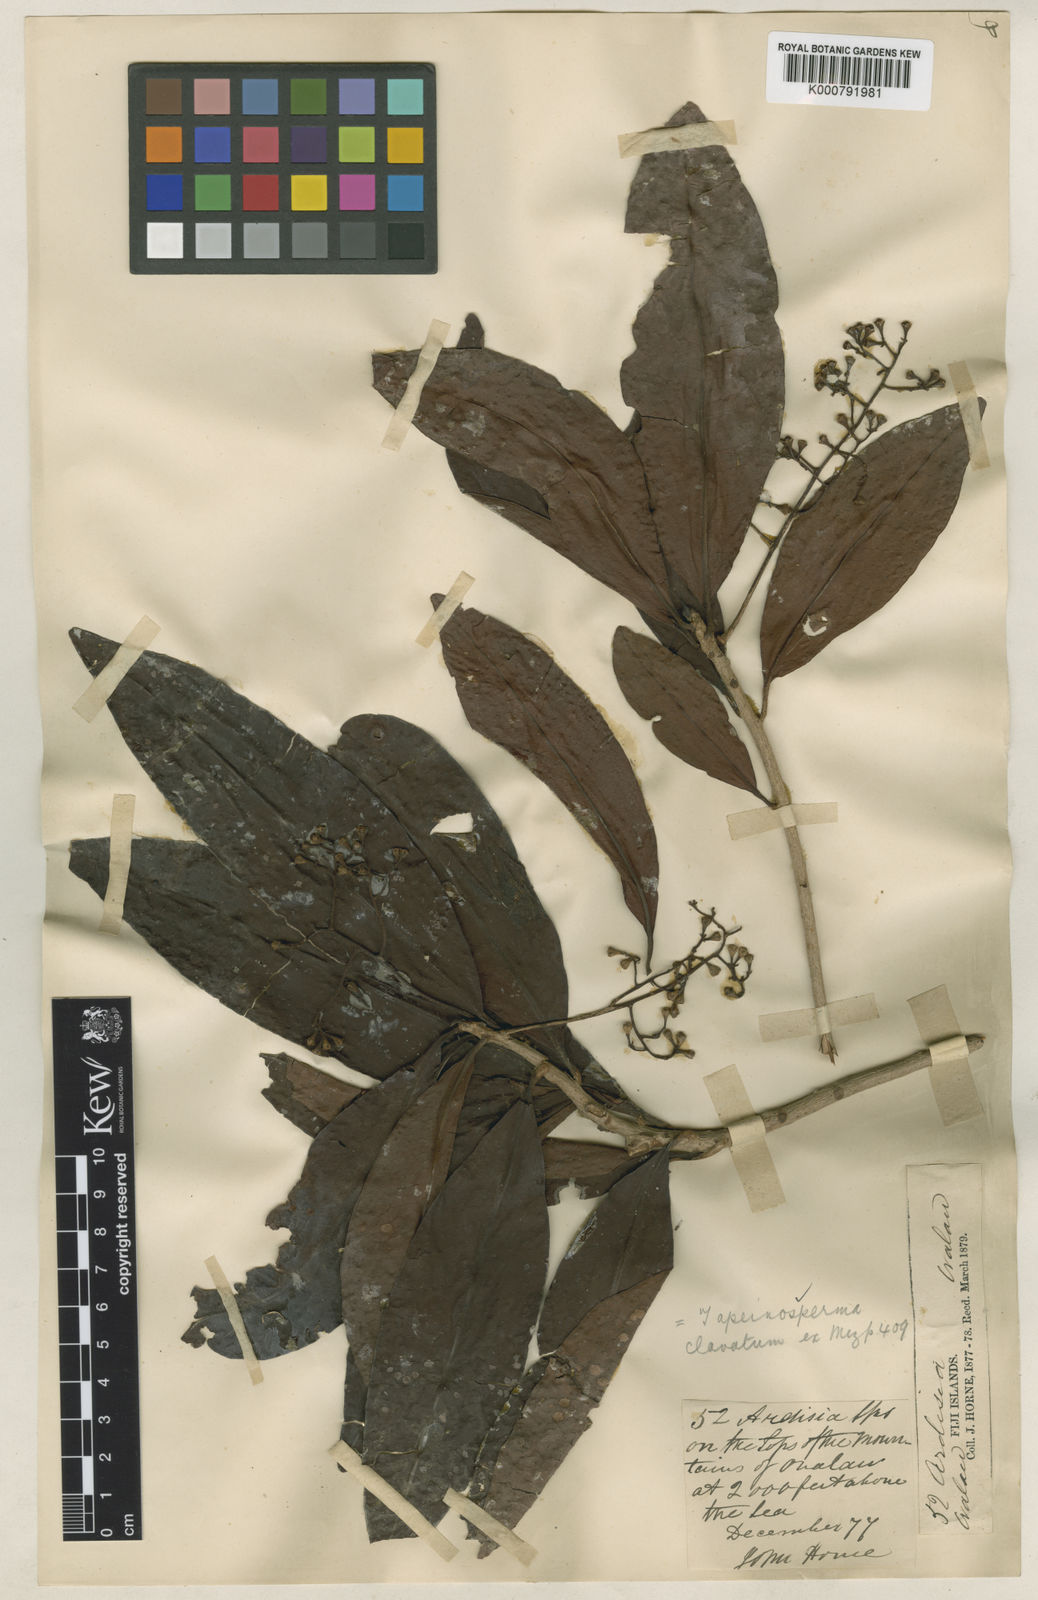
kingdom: Plantae
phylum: Tracheophyta
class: Magnoliopsida
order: Ericales
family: Primulaceae
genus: Tapeinosperma
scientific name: Tapeinosperma clavatum
